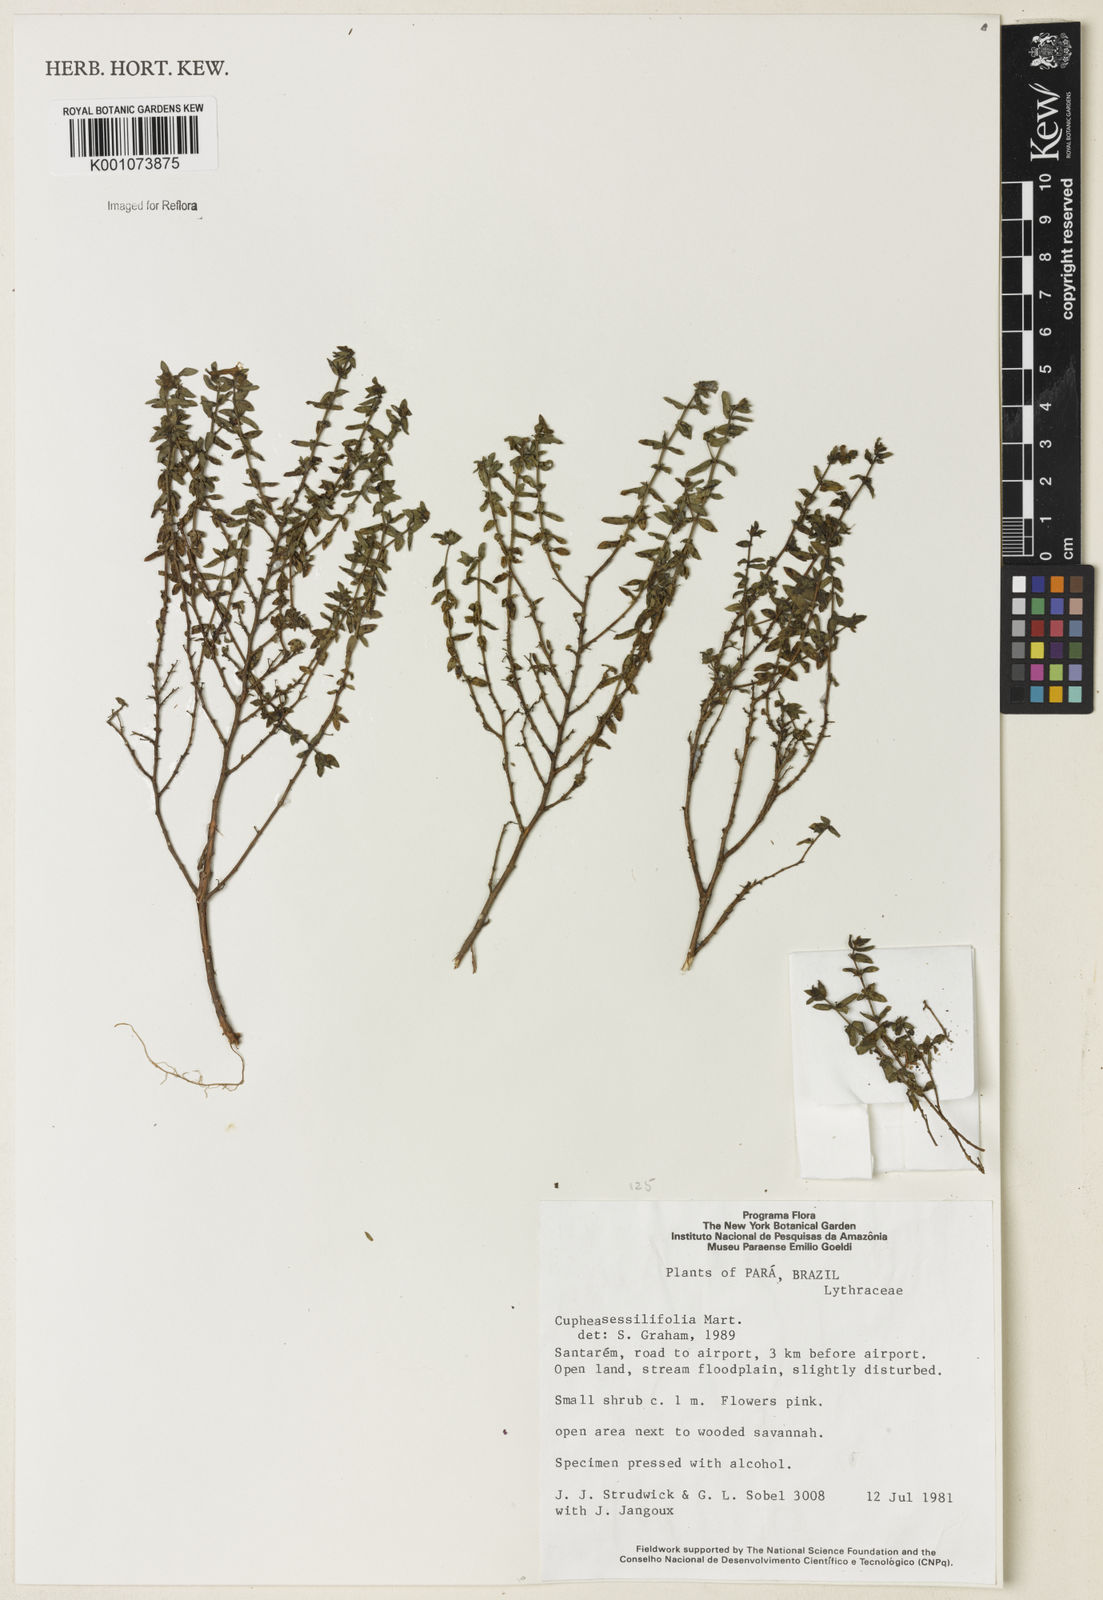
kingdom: Plantae
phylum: Tracheophyta
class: Magnoliopsida
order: Myrtales
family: Lythraceae
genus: Cuphea
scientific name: Cuphea
